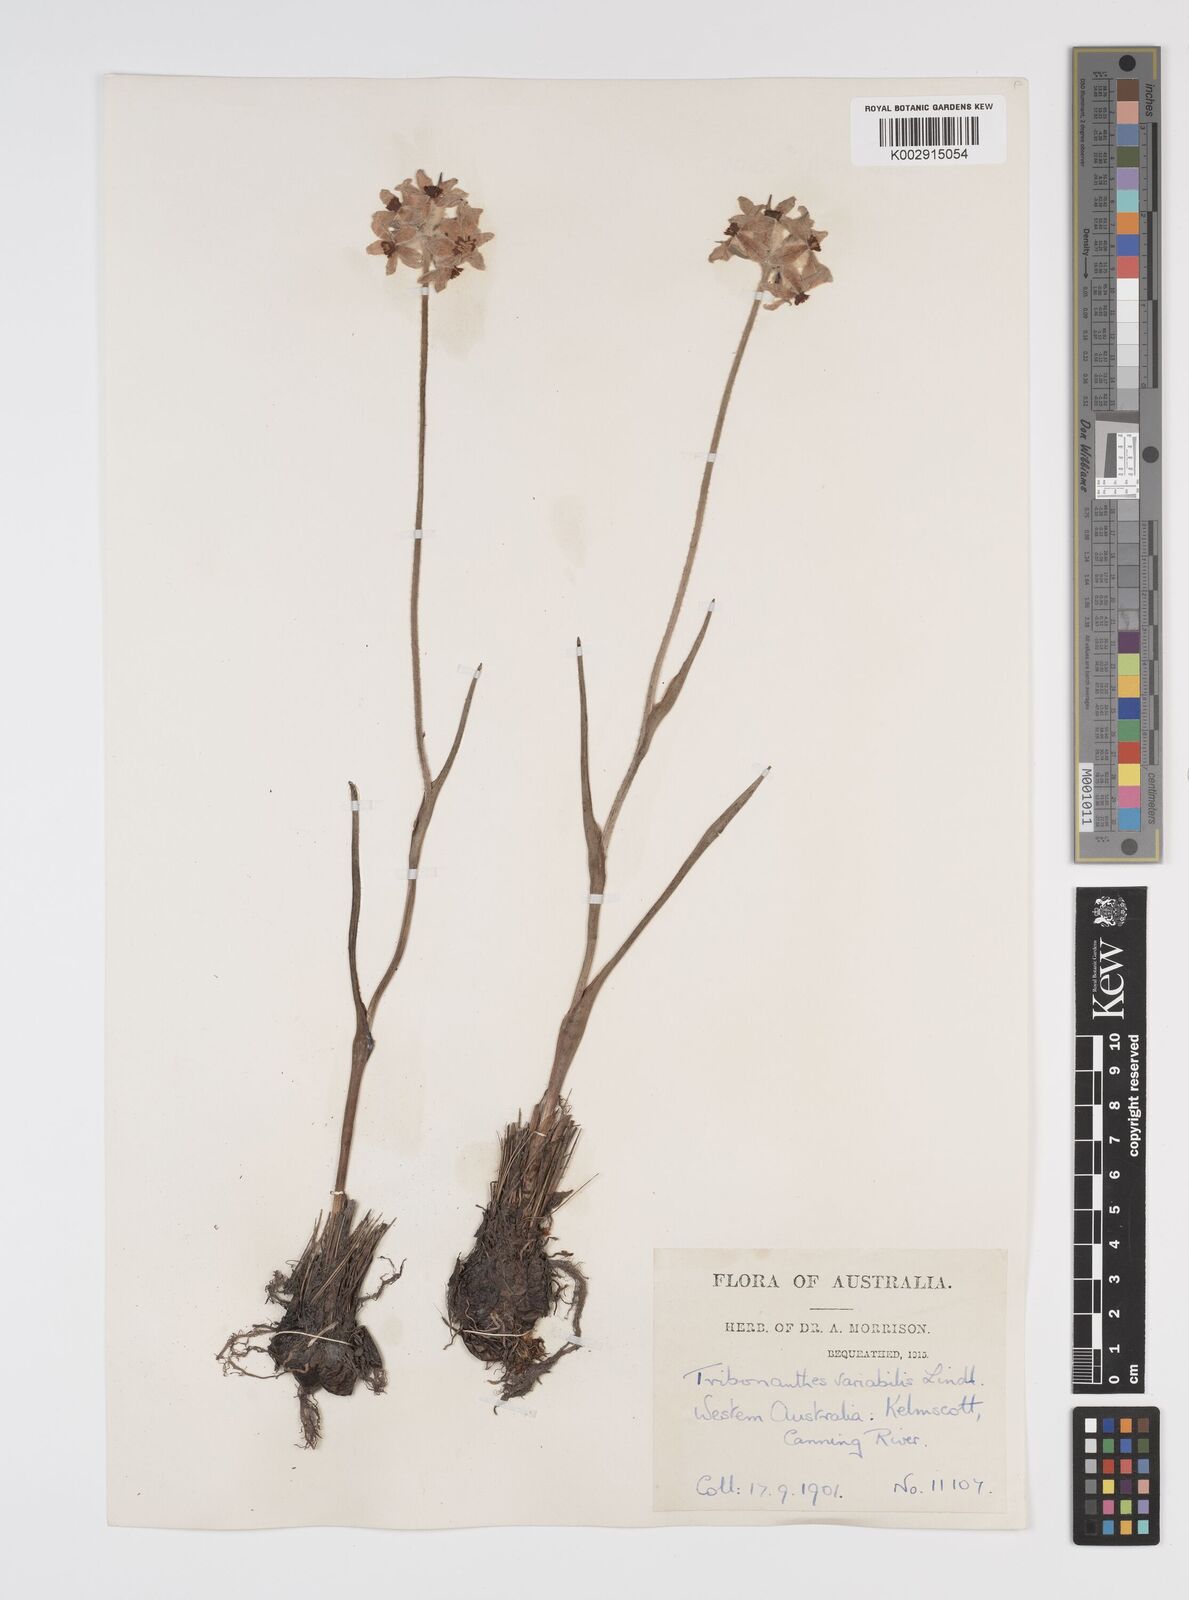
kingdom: Plantae
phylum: Tracheophyta
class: Liliopsida
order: Commelinales
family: Haemodoraceae
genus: Tribonanthes
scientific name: Tribonanthes australis
